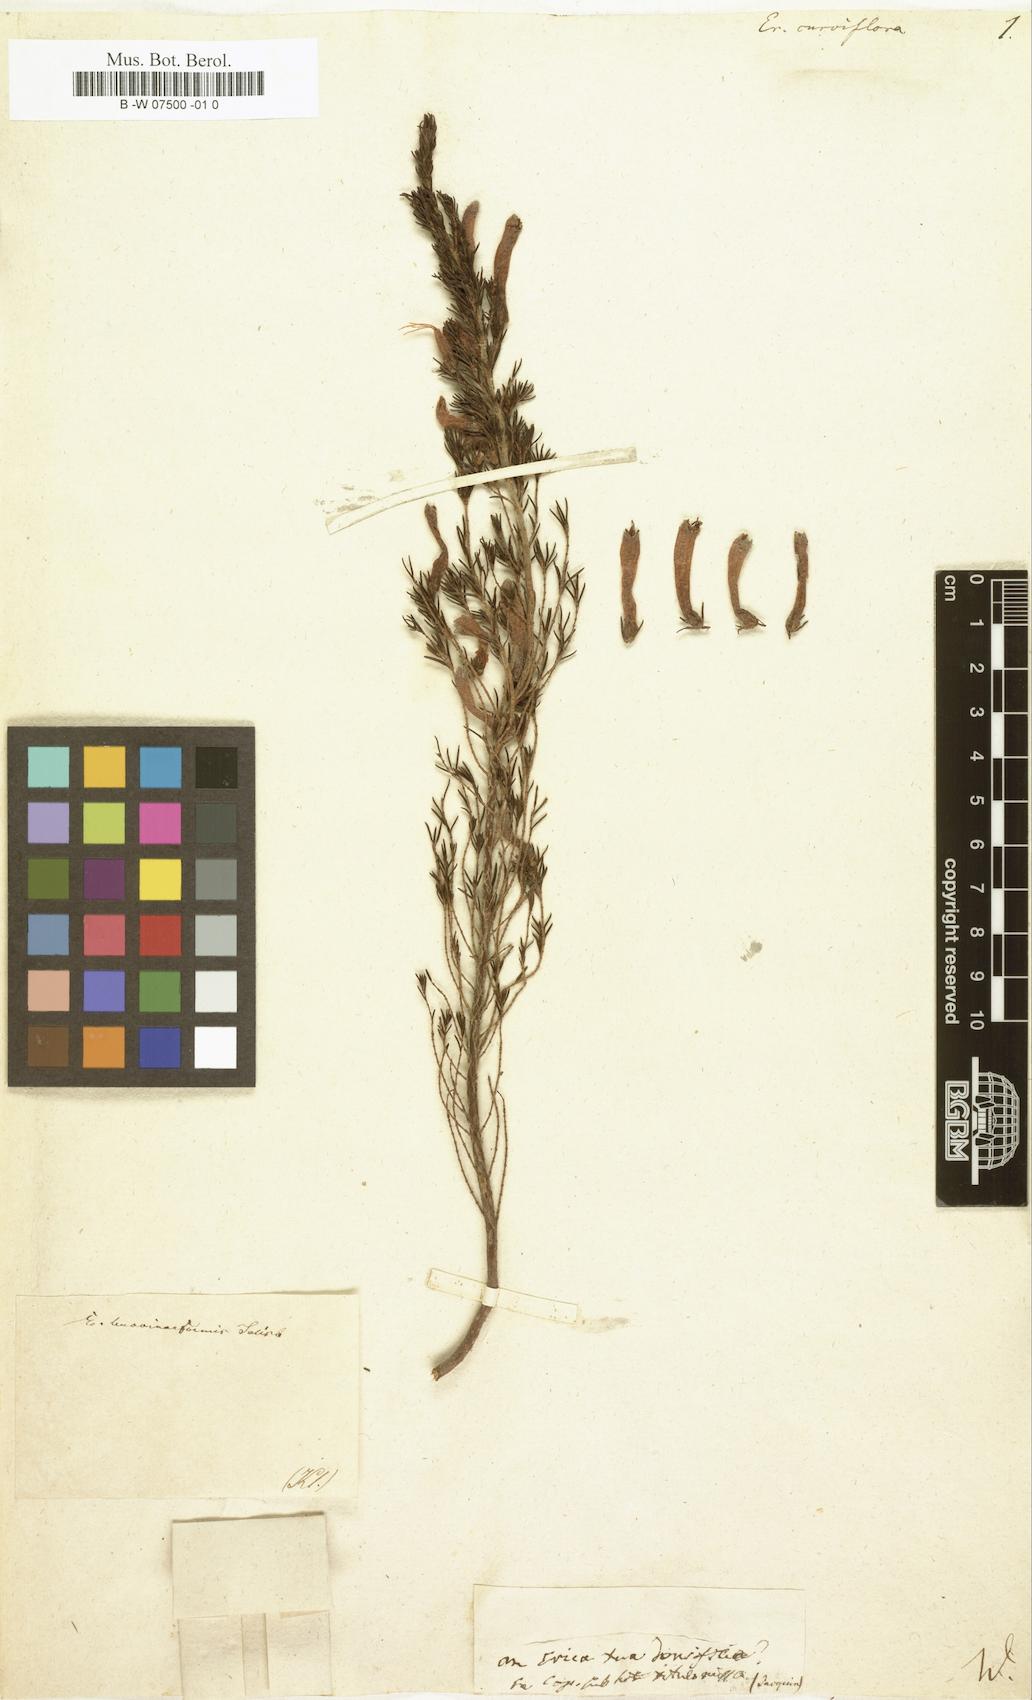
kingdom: Plantae
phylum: Tracheophyta
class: Magnoliopsida
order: Ericales
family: Ericaceae
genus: Erica
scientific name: Erica curviflora
